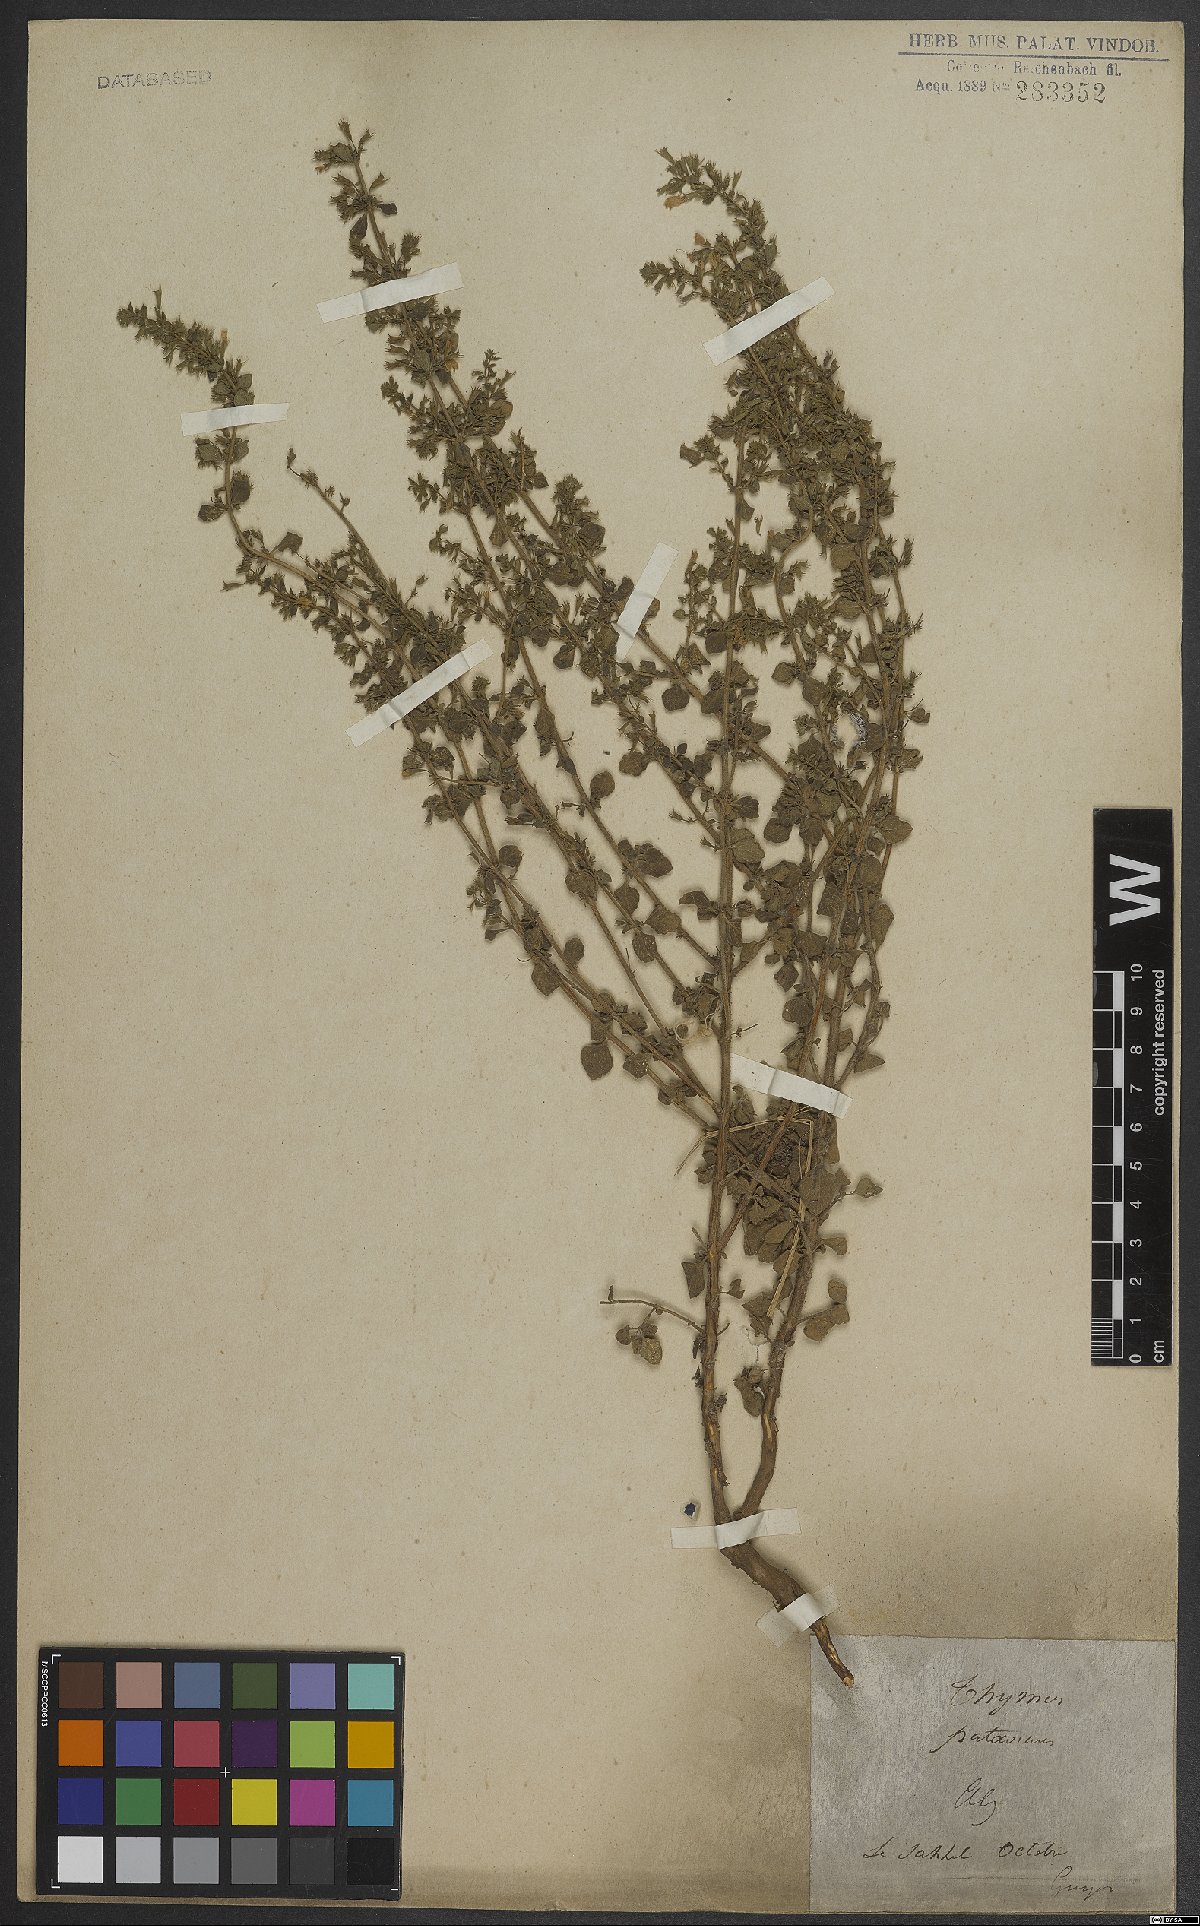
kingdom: Plantae
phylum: Tracheophyta
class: Magnoliopsida
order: Lamiales
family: Lamiaceae
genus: Clinopodium
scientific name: Clinopodium heterotrichum
